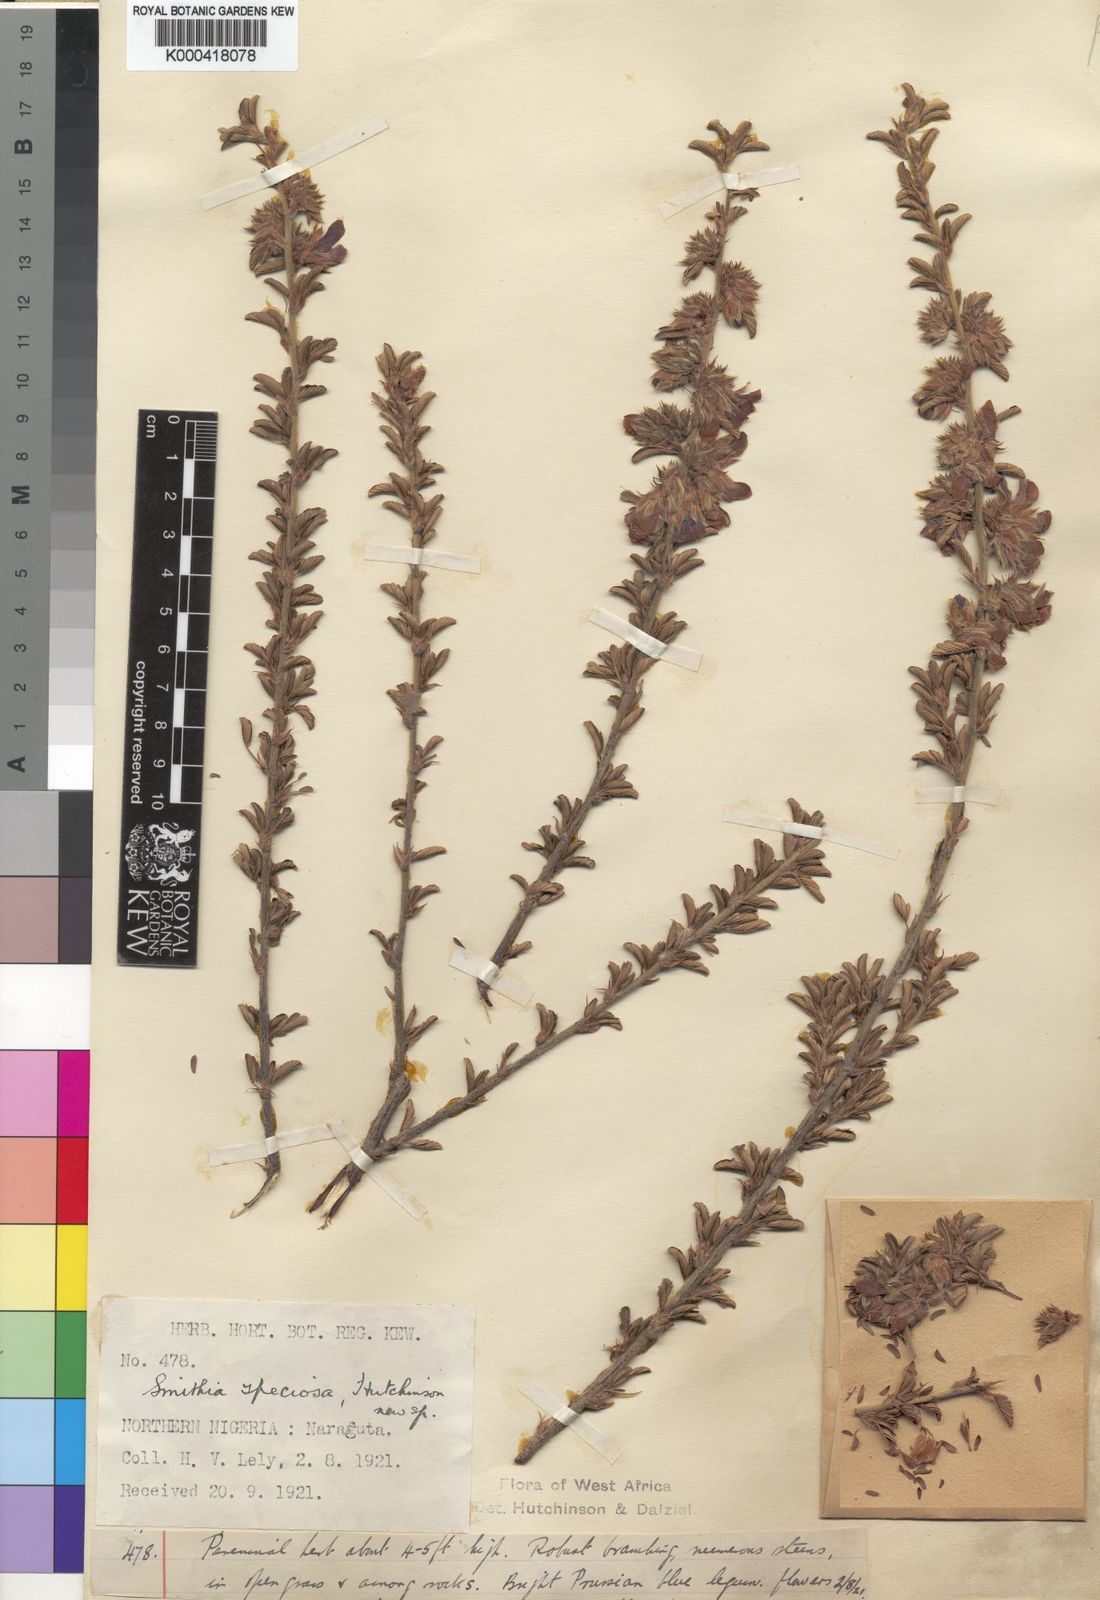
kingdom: Plantae
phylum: Tracheophyta
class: Magnoliopsida
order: Fabales
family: Fabaceae
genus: Kotschya
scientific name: Kotschya speciosa
